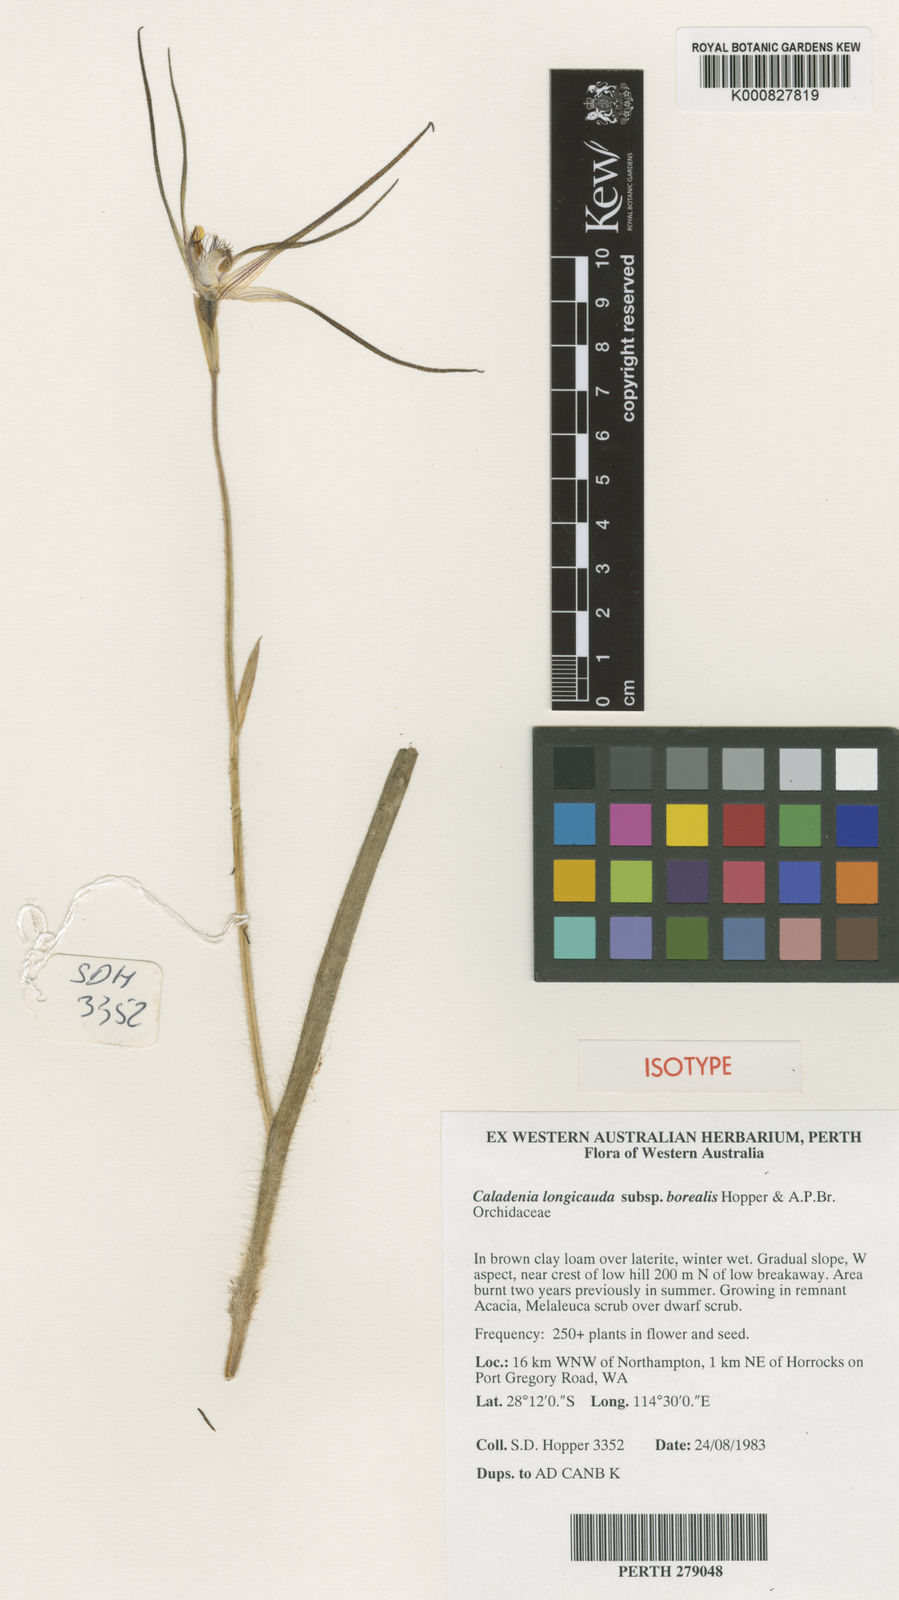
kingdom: Plantae
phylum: Tracheophyta
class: Liliopsida
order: Asparagales
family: Orchidaceae
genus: Caladenia
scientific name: Caladenia longicauda
